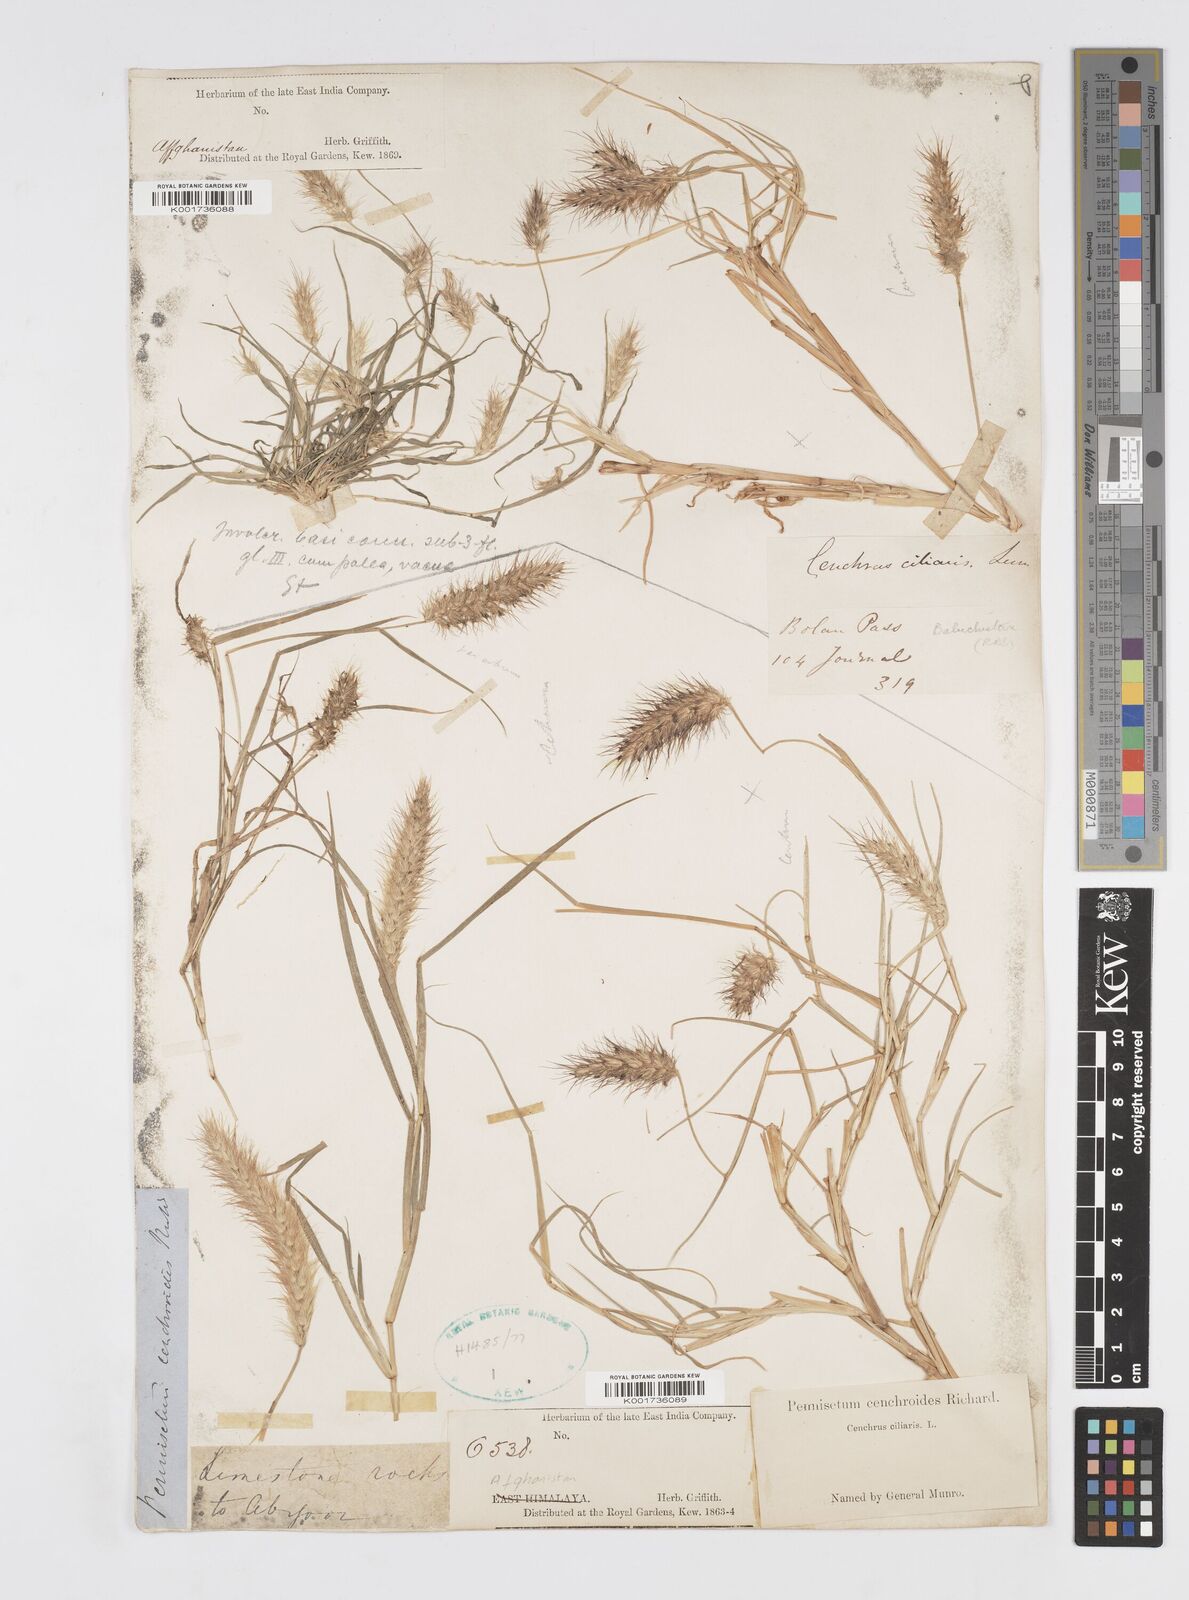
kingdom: Plantae
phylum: Tracheophyta
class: Liliopsida
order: Poales
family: Poaceae
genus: Cenchrus
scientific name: Cenchrus ciliaris
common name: Buffelgrass
